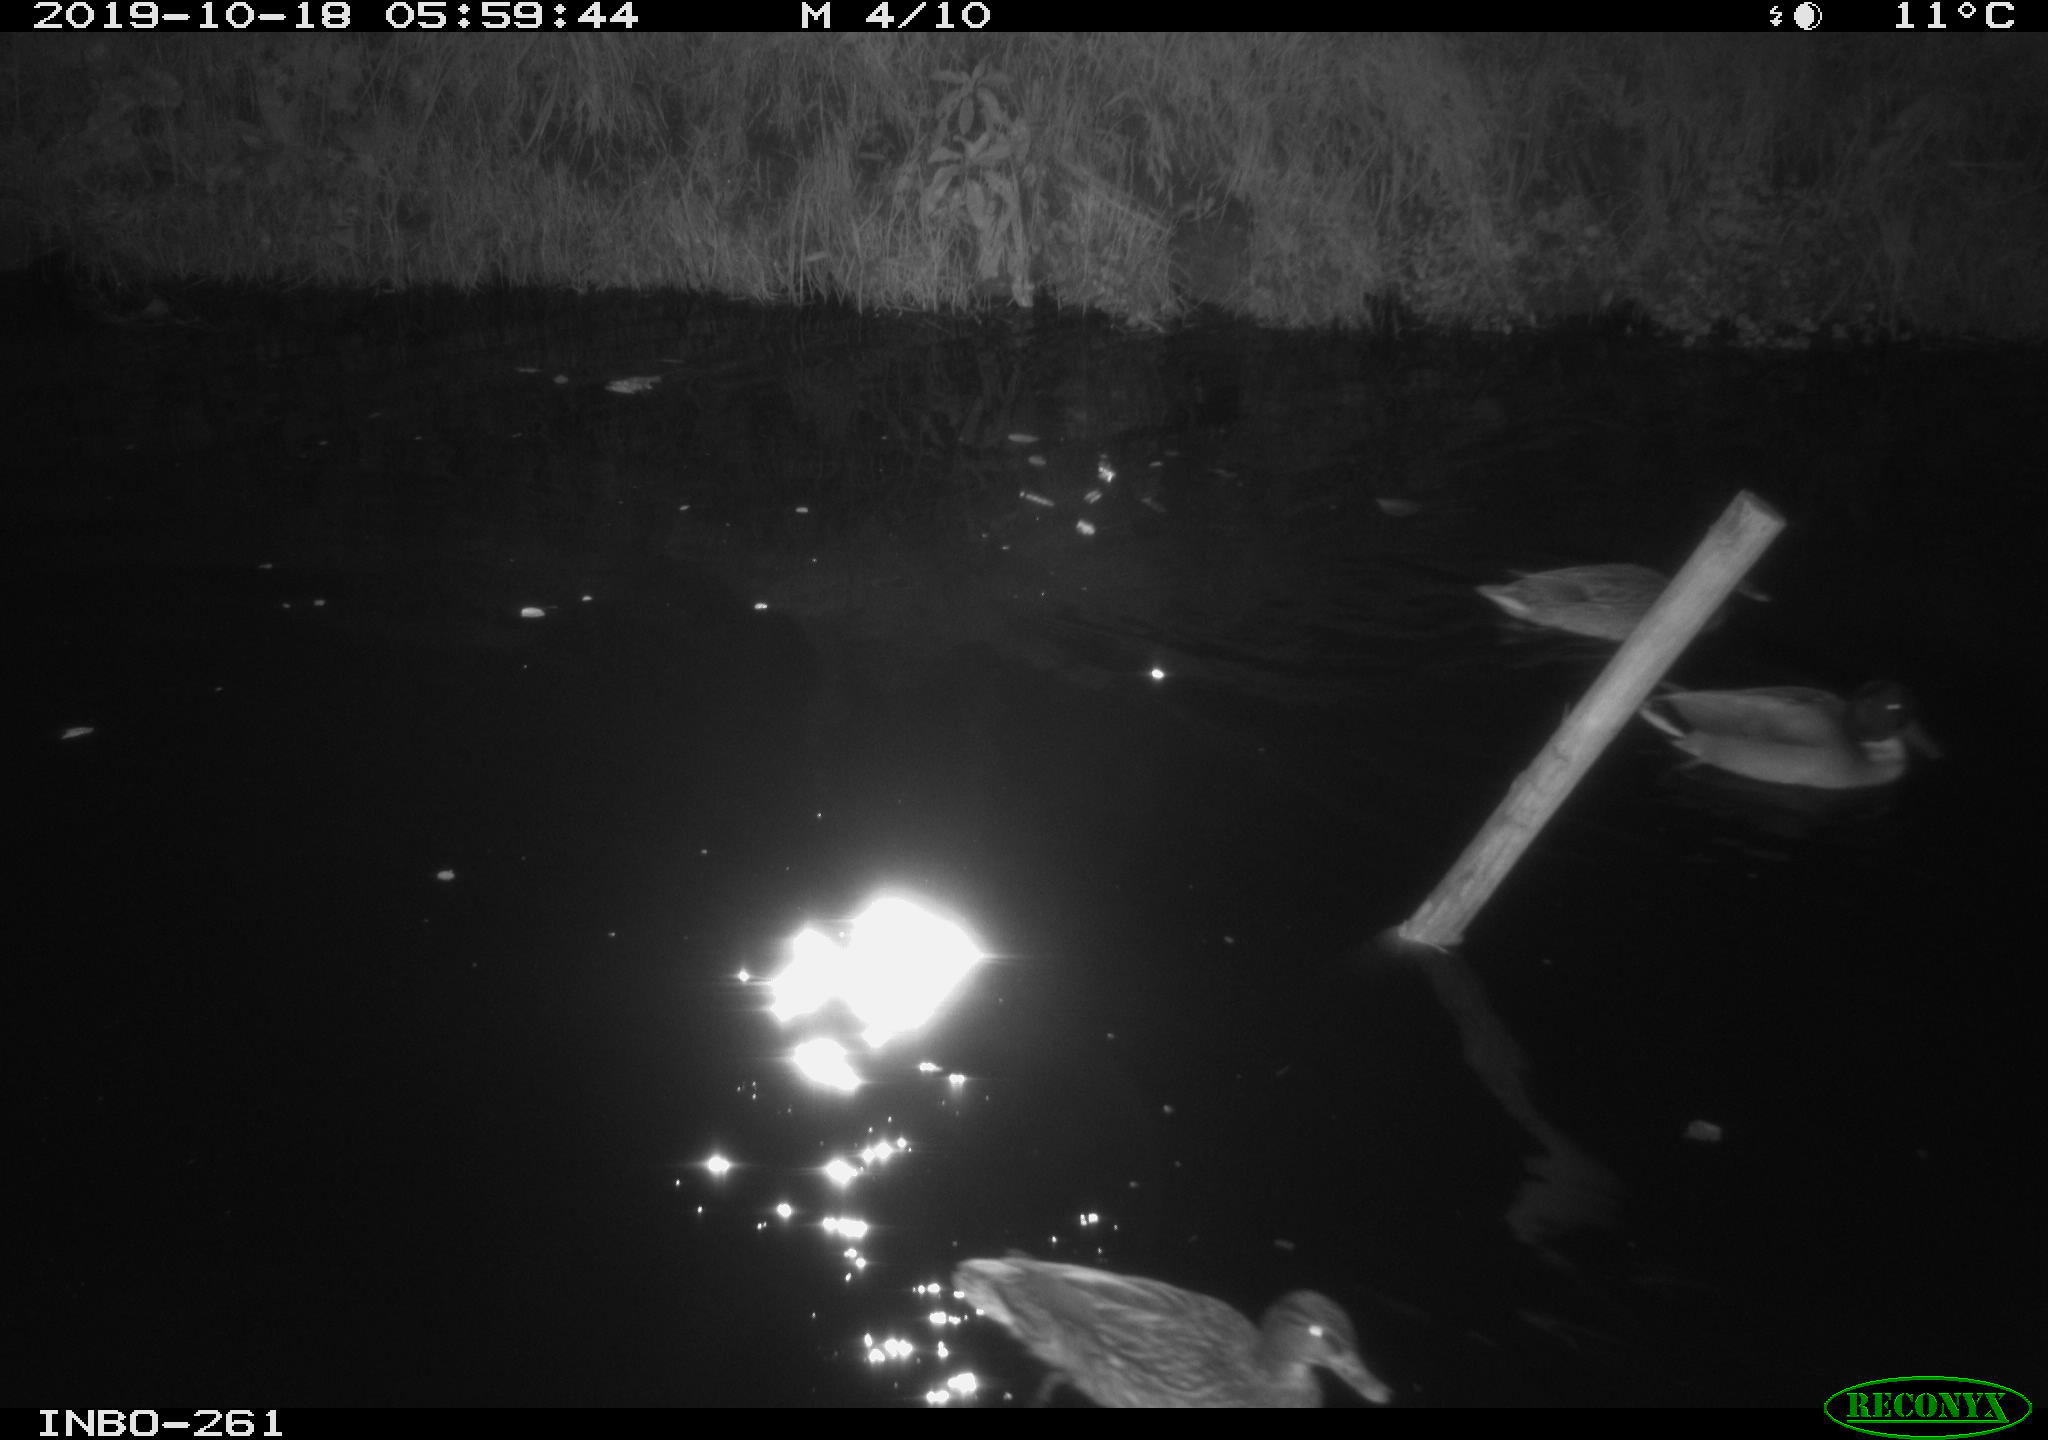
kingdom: Animalia
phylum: Chordata
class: Aves
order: Anseriformes
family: Anatidae
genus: Anas
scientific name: Anas platyrhynchos
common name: Mallard
